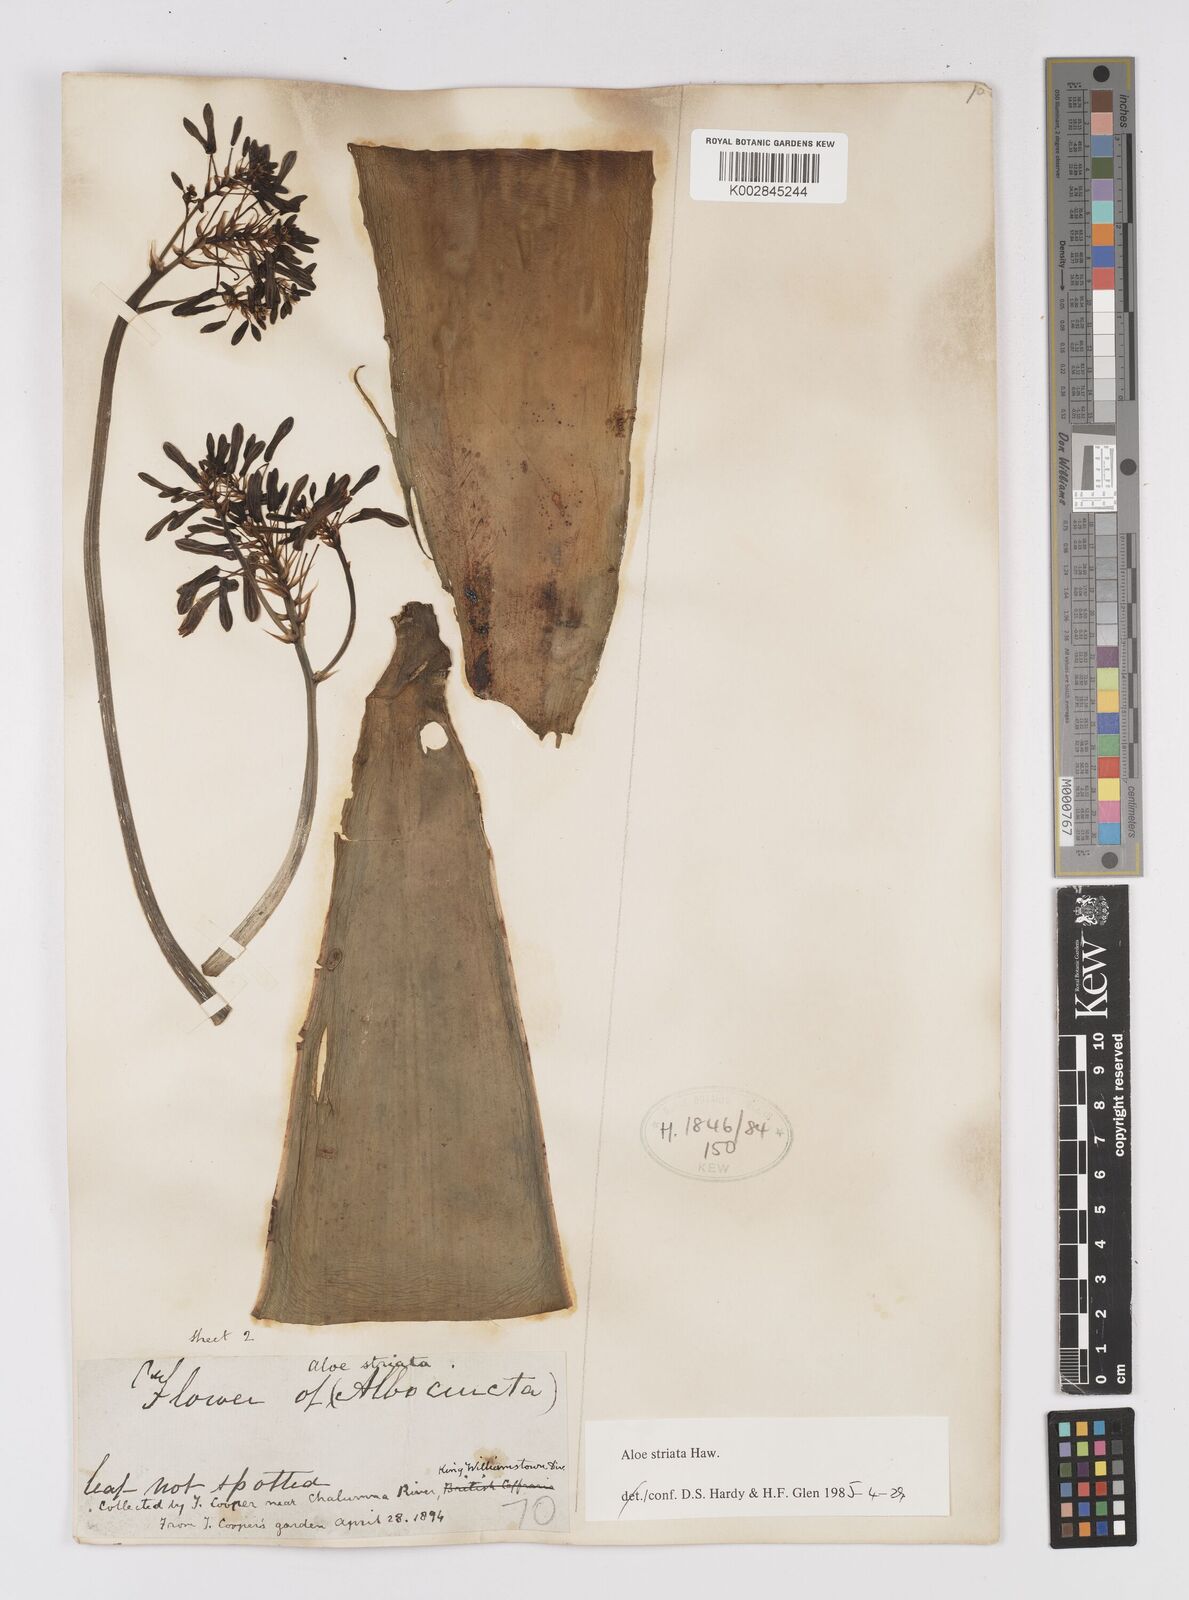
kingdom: Plantae
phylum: Tracheophyta
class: Liliopsida
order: Asparagales
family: Asphodelaceae
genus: Aloe
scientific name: Aloe striata
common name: Coral aloe
